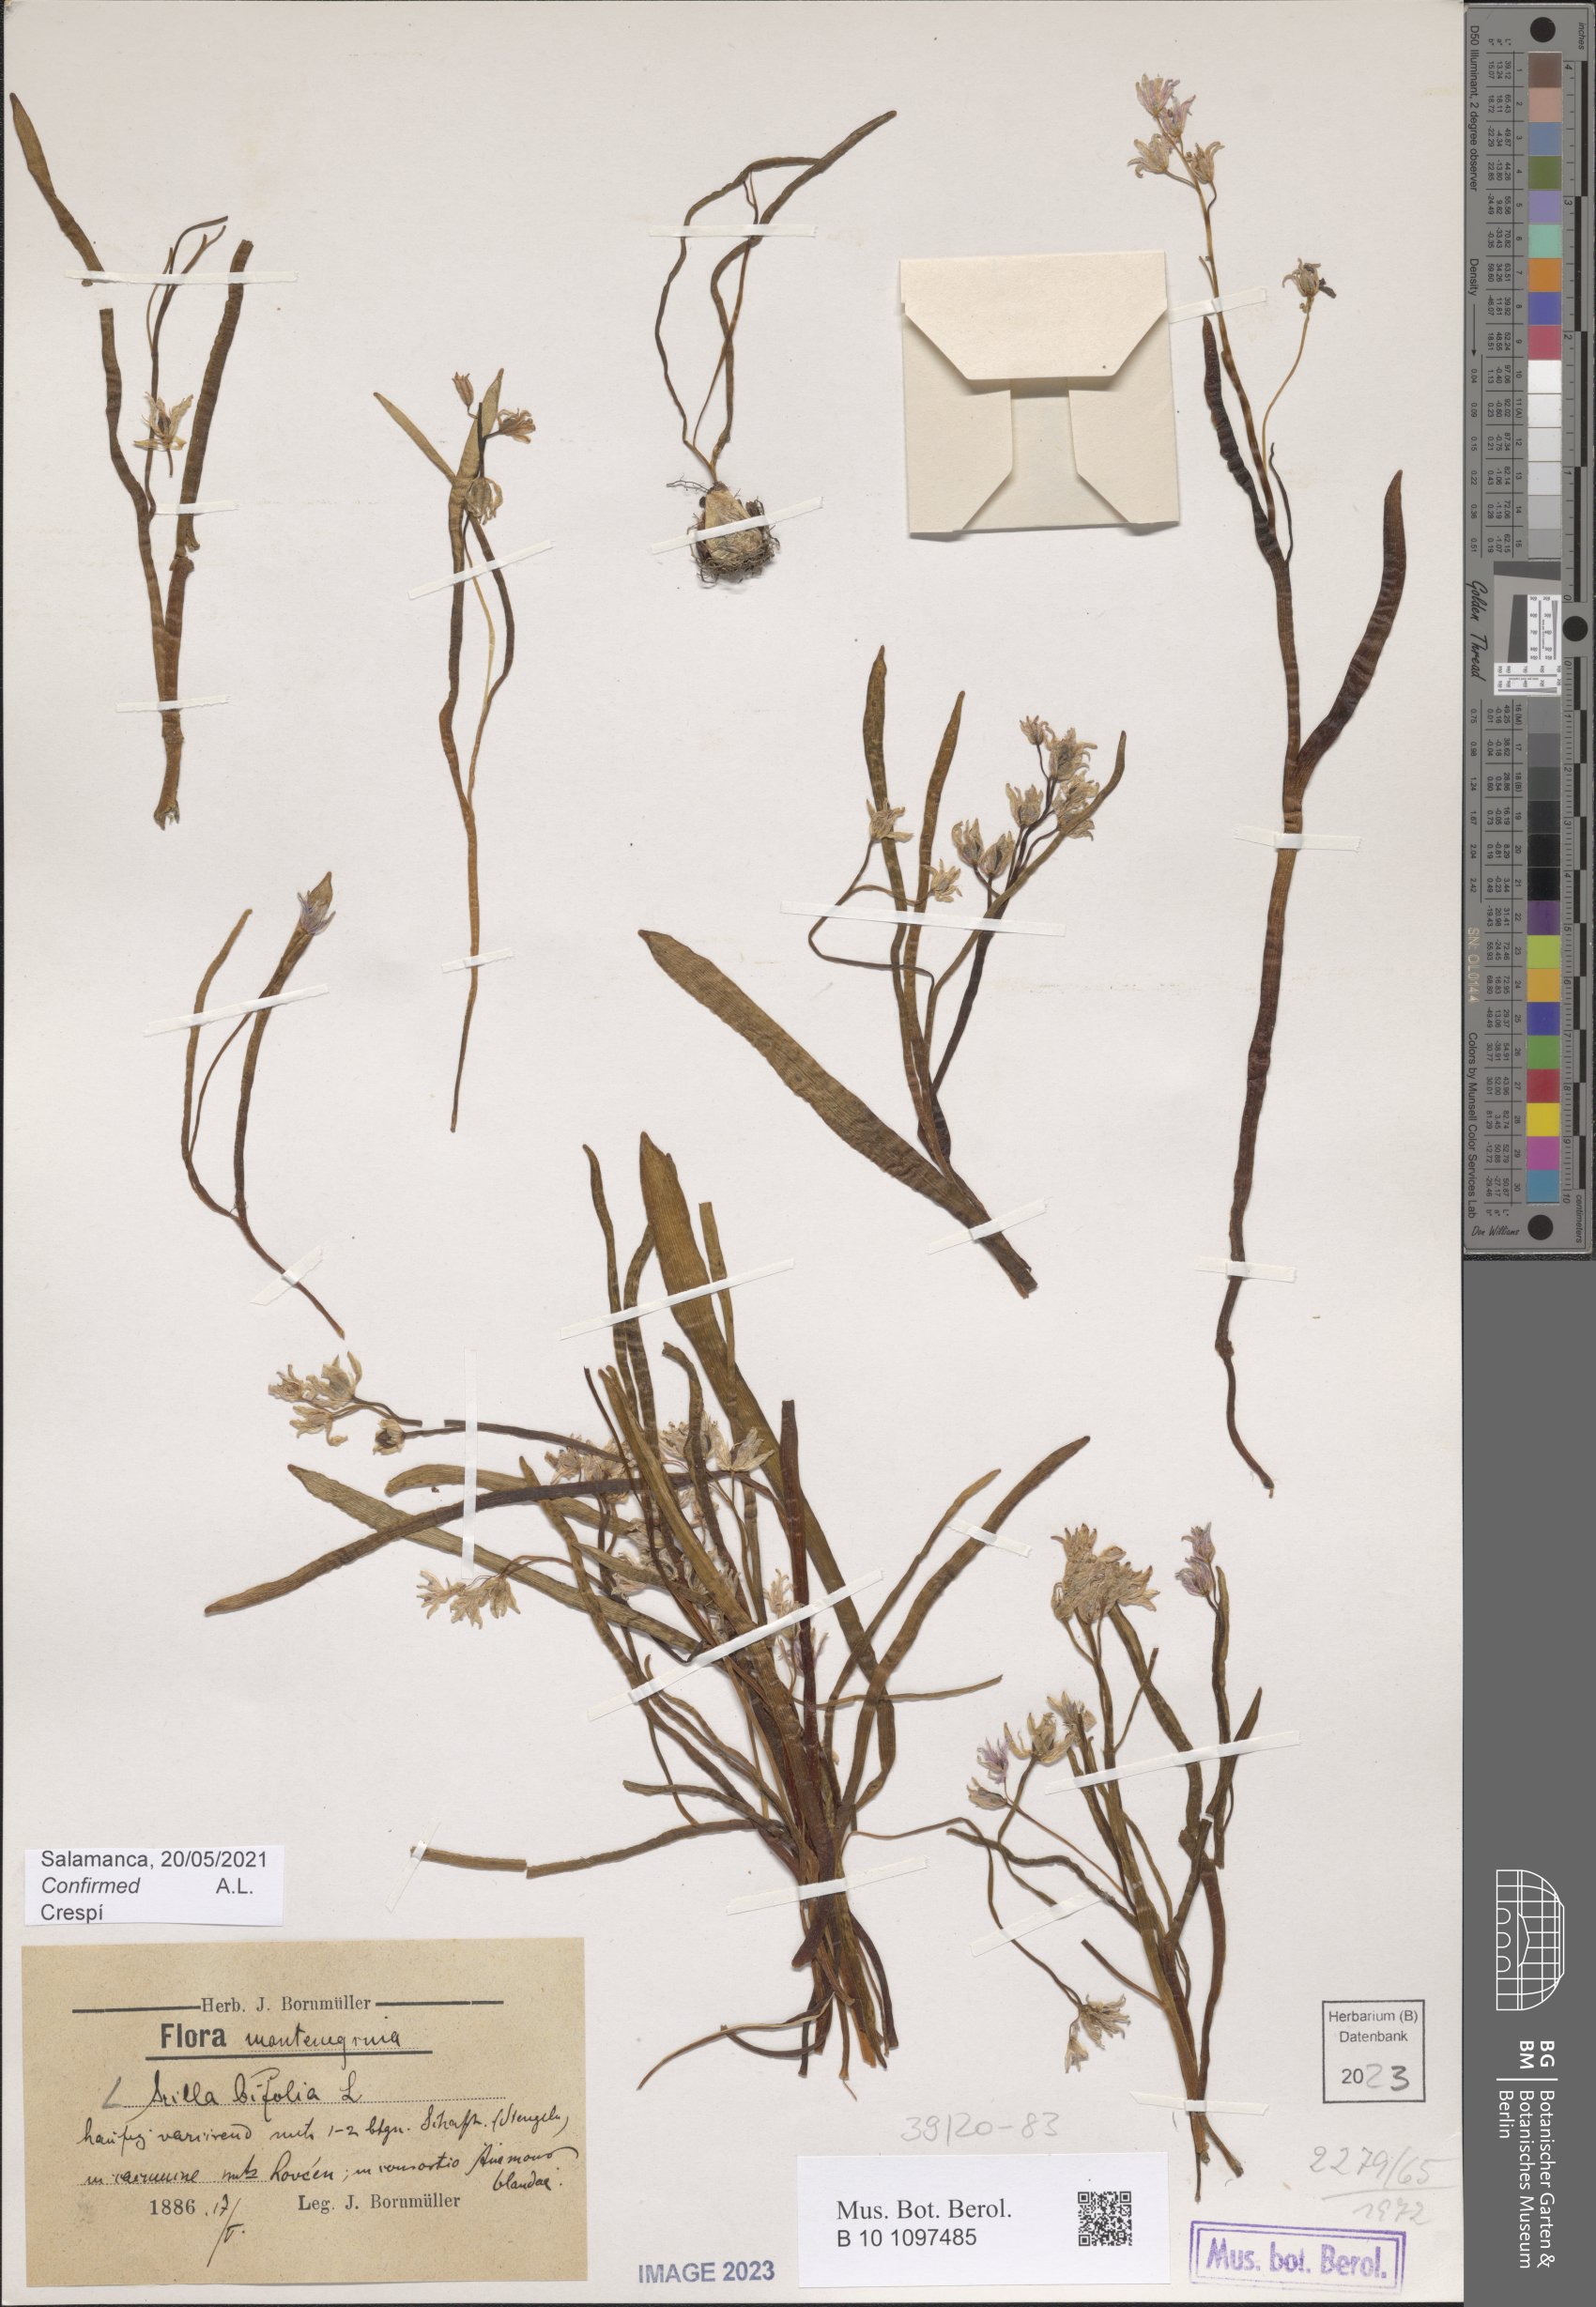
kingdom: Plantae
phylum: Tracheophyta
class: Liliopsida
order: Asparagales
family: Asparagaceae
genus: Scilla
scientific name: Scilla bifolia
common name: Alpine squill
